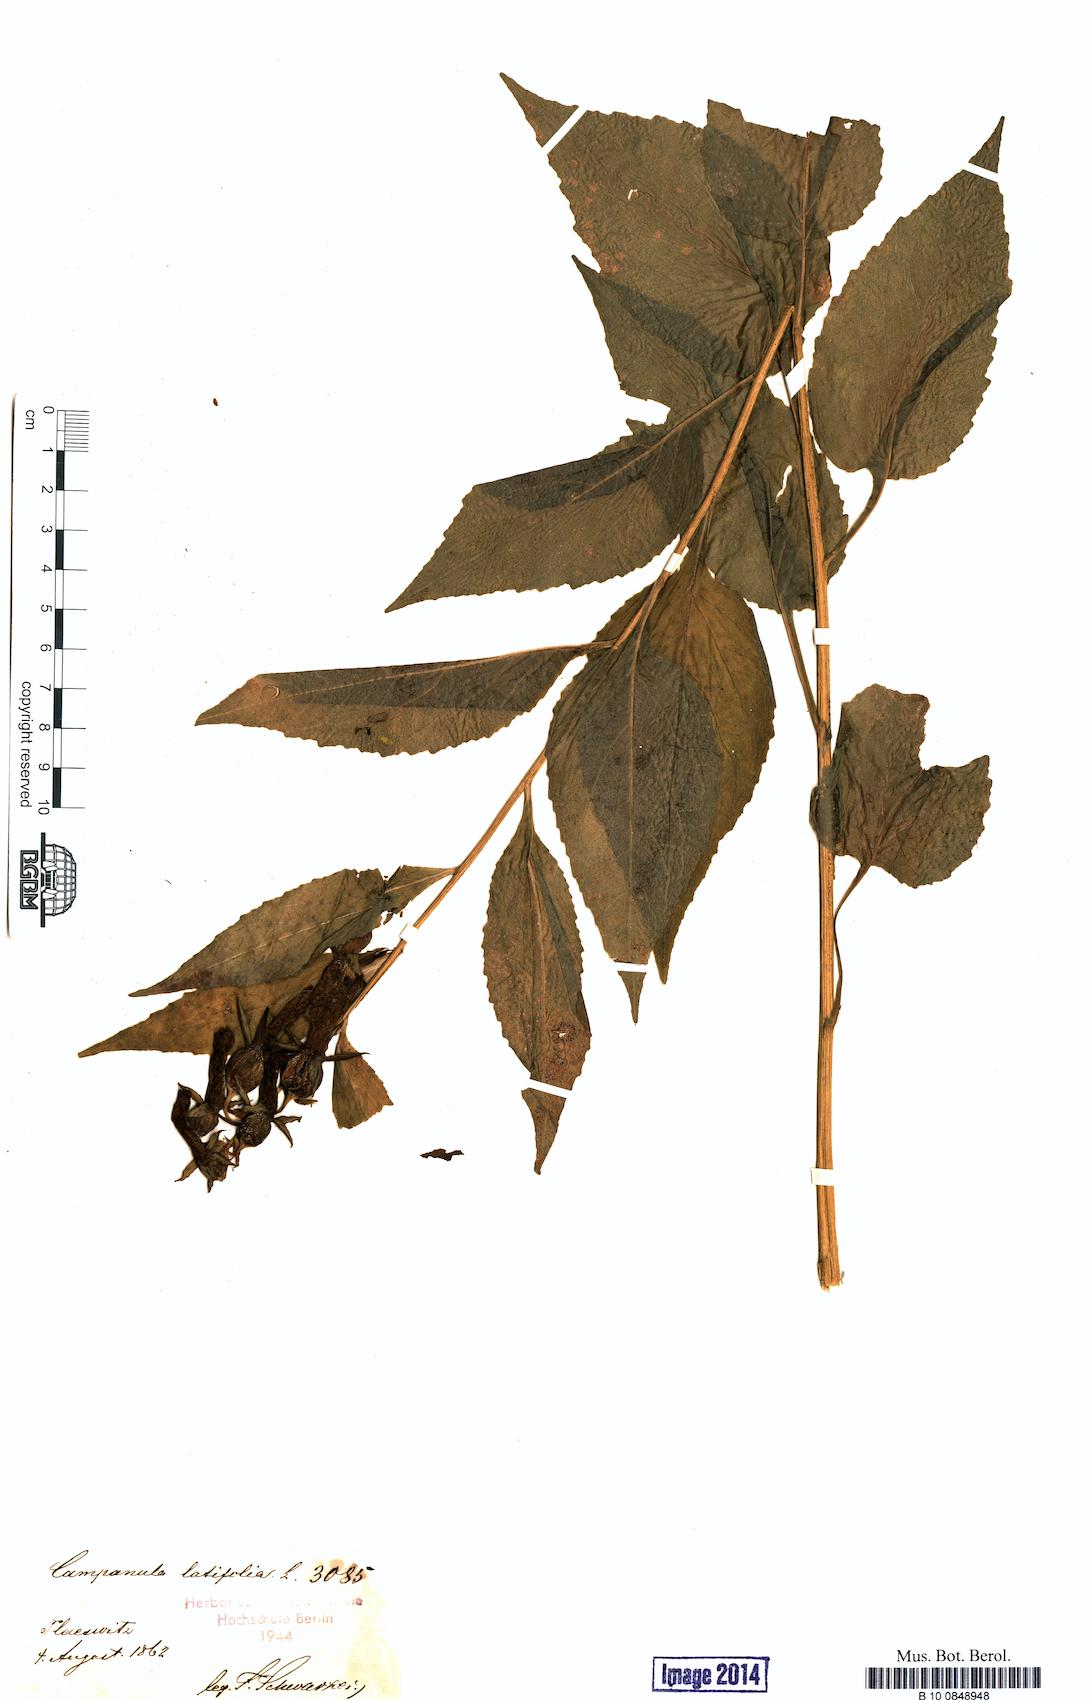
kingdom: Plantae
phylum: Tracheophyta
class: Magnoliopsida
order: Asterales
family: Campanulaceae
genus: Campanula
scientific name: Campanula latifolia
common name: Giant bellflower
